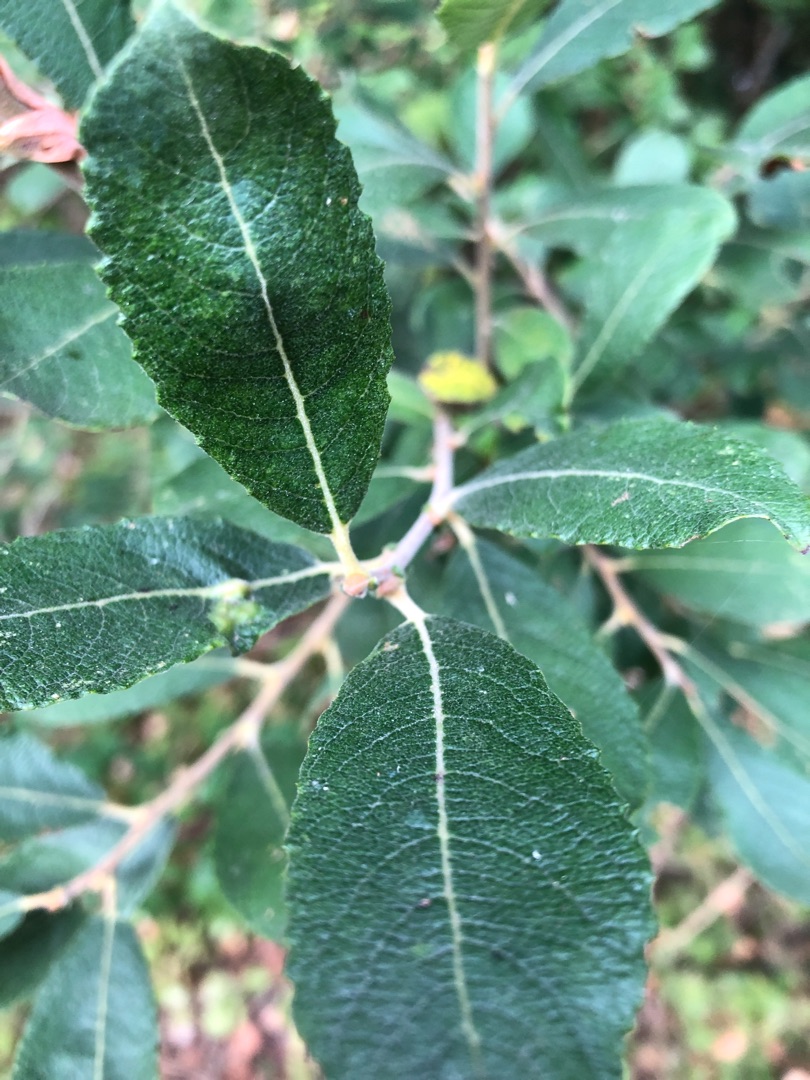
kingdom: Plantae
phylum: Tracheophyta
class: Magnoliopsida
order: Malpighiales
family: Salicaceae
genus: Salix
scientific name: Salix cinerea
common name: Grå-pil
